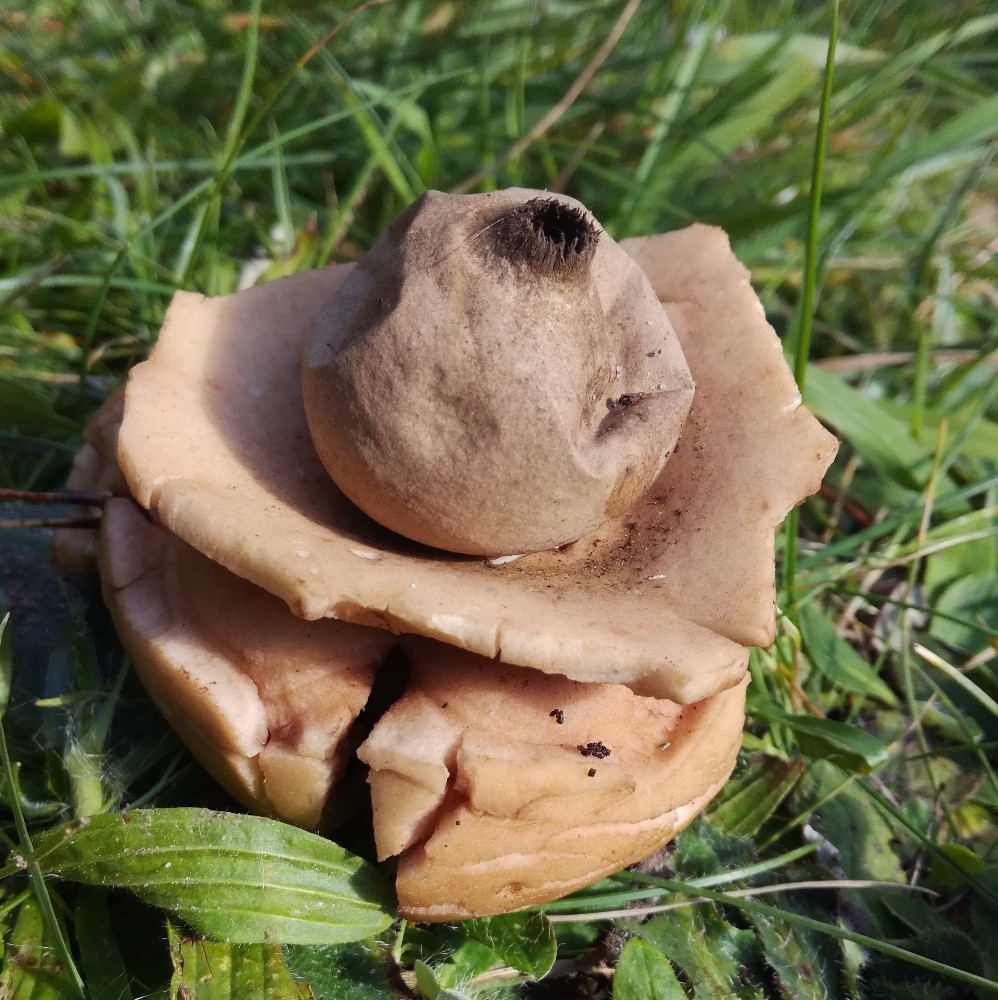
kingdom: Fungi
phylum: Basidiomycota
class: Agaricomycetes
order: Geastrales
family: Geastraceae
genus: Geastrum
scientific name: Geastrum michelianum
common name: kødet stjernebold
